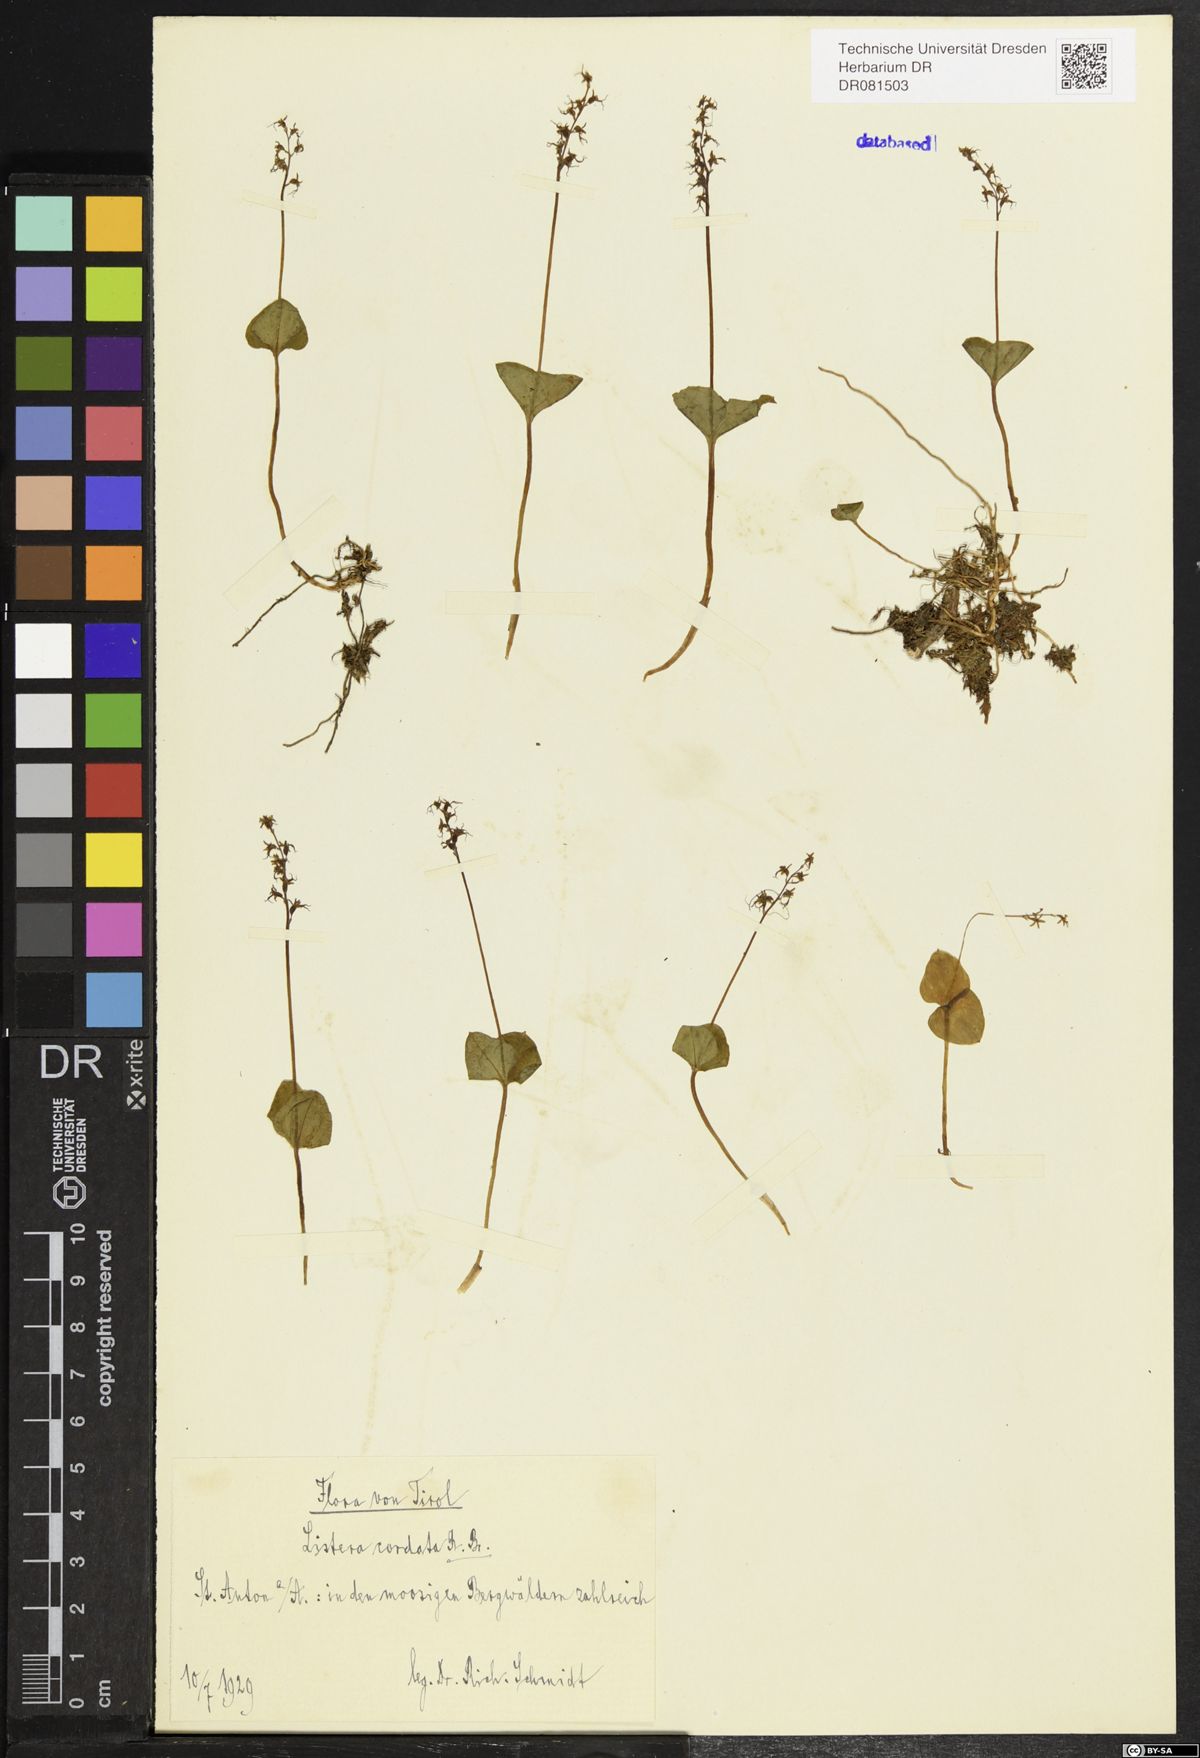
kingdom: Plantae
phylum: Tracheophyta
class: Liliopsida
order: Asparagales
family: Orchidaceae
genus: Neottia
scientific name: Neottia cordata
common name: Lesser twayblade
